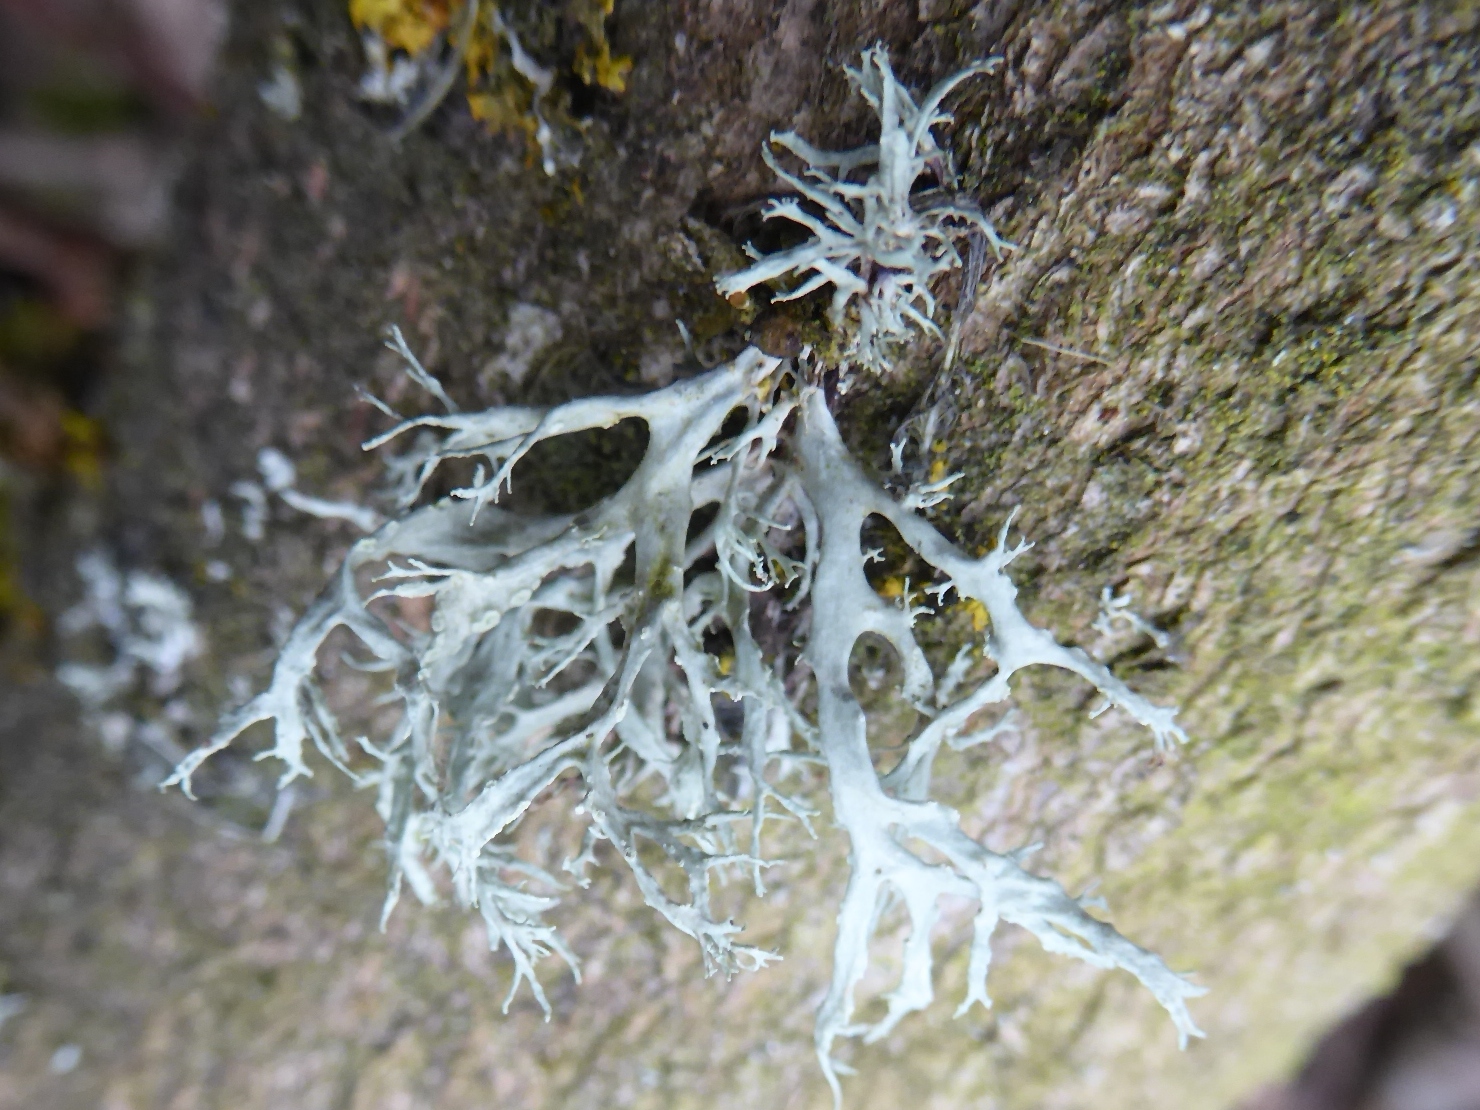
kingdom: Fungi
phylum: Ascomycota
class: Lecanoromycetes
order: Lecanorales
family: Ramalinaceae
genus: Ramalina
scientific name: Ramalina farinacea
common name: melet grenlav
